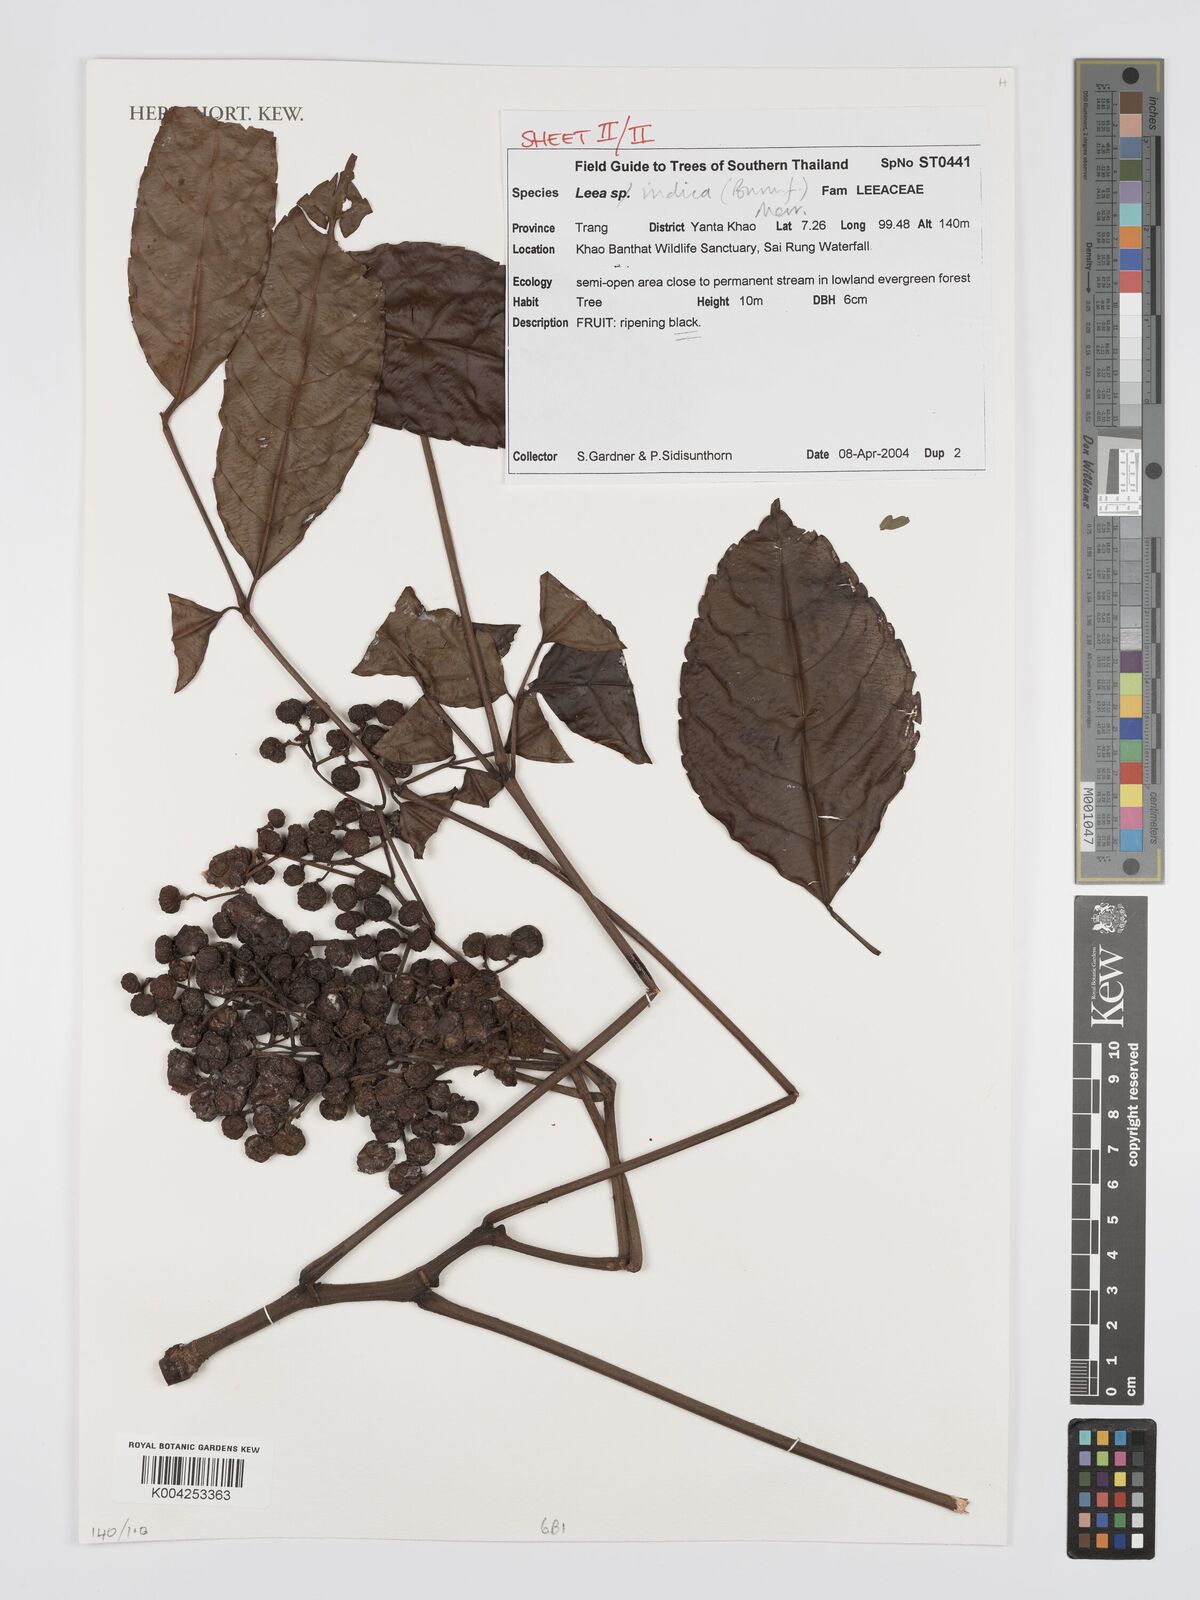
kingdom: Plantae
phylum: Tracheophyta
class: Magnoliopsida
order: Vitales
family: Vitaceae
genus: Leea
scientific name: Leea indica
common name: Bandicoot-berry
